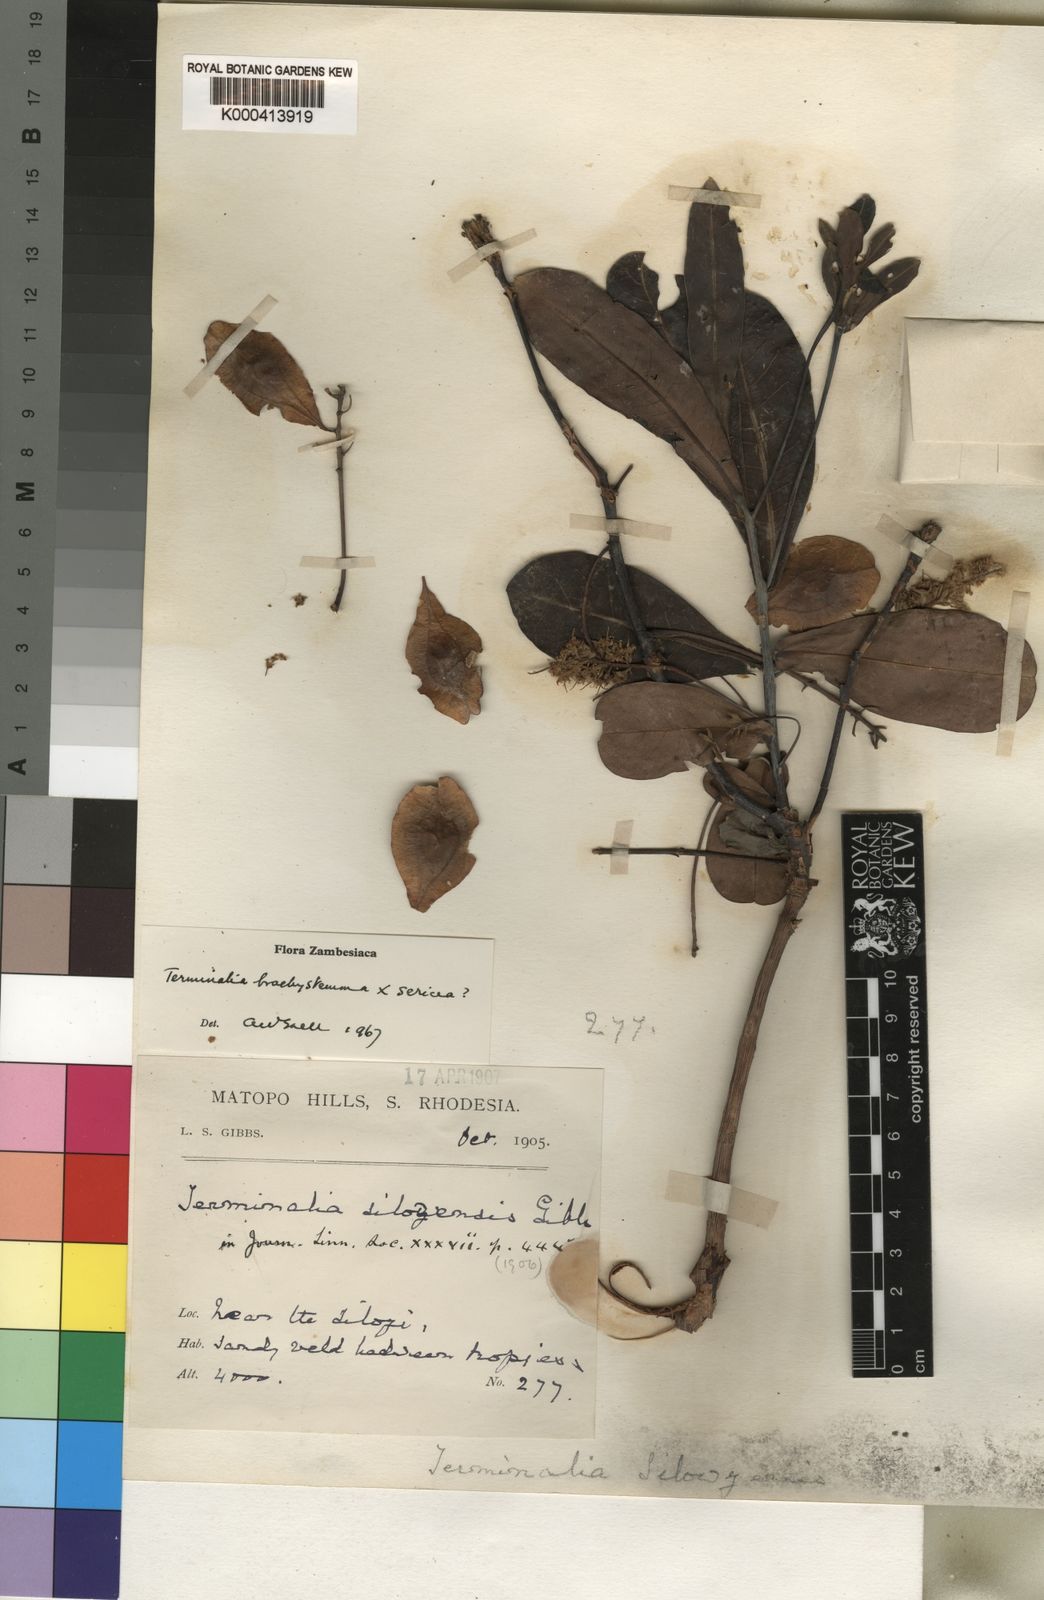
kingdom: Plantae
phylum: Tracheophyta
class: Magnoliopsida
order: Myrtales
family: Combretaceae
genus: Terminalia
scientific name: Terminalia silozensis
